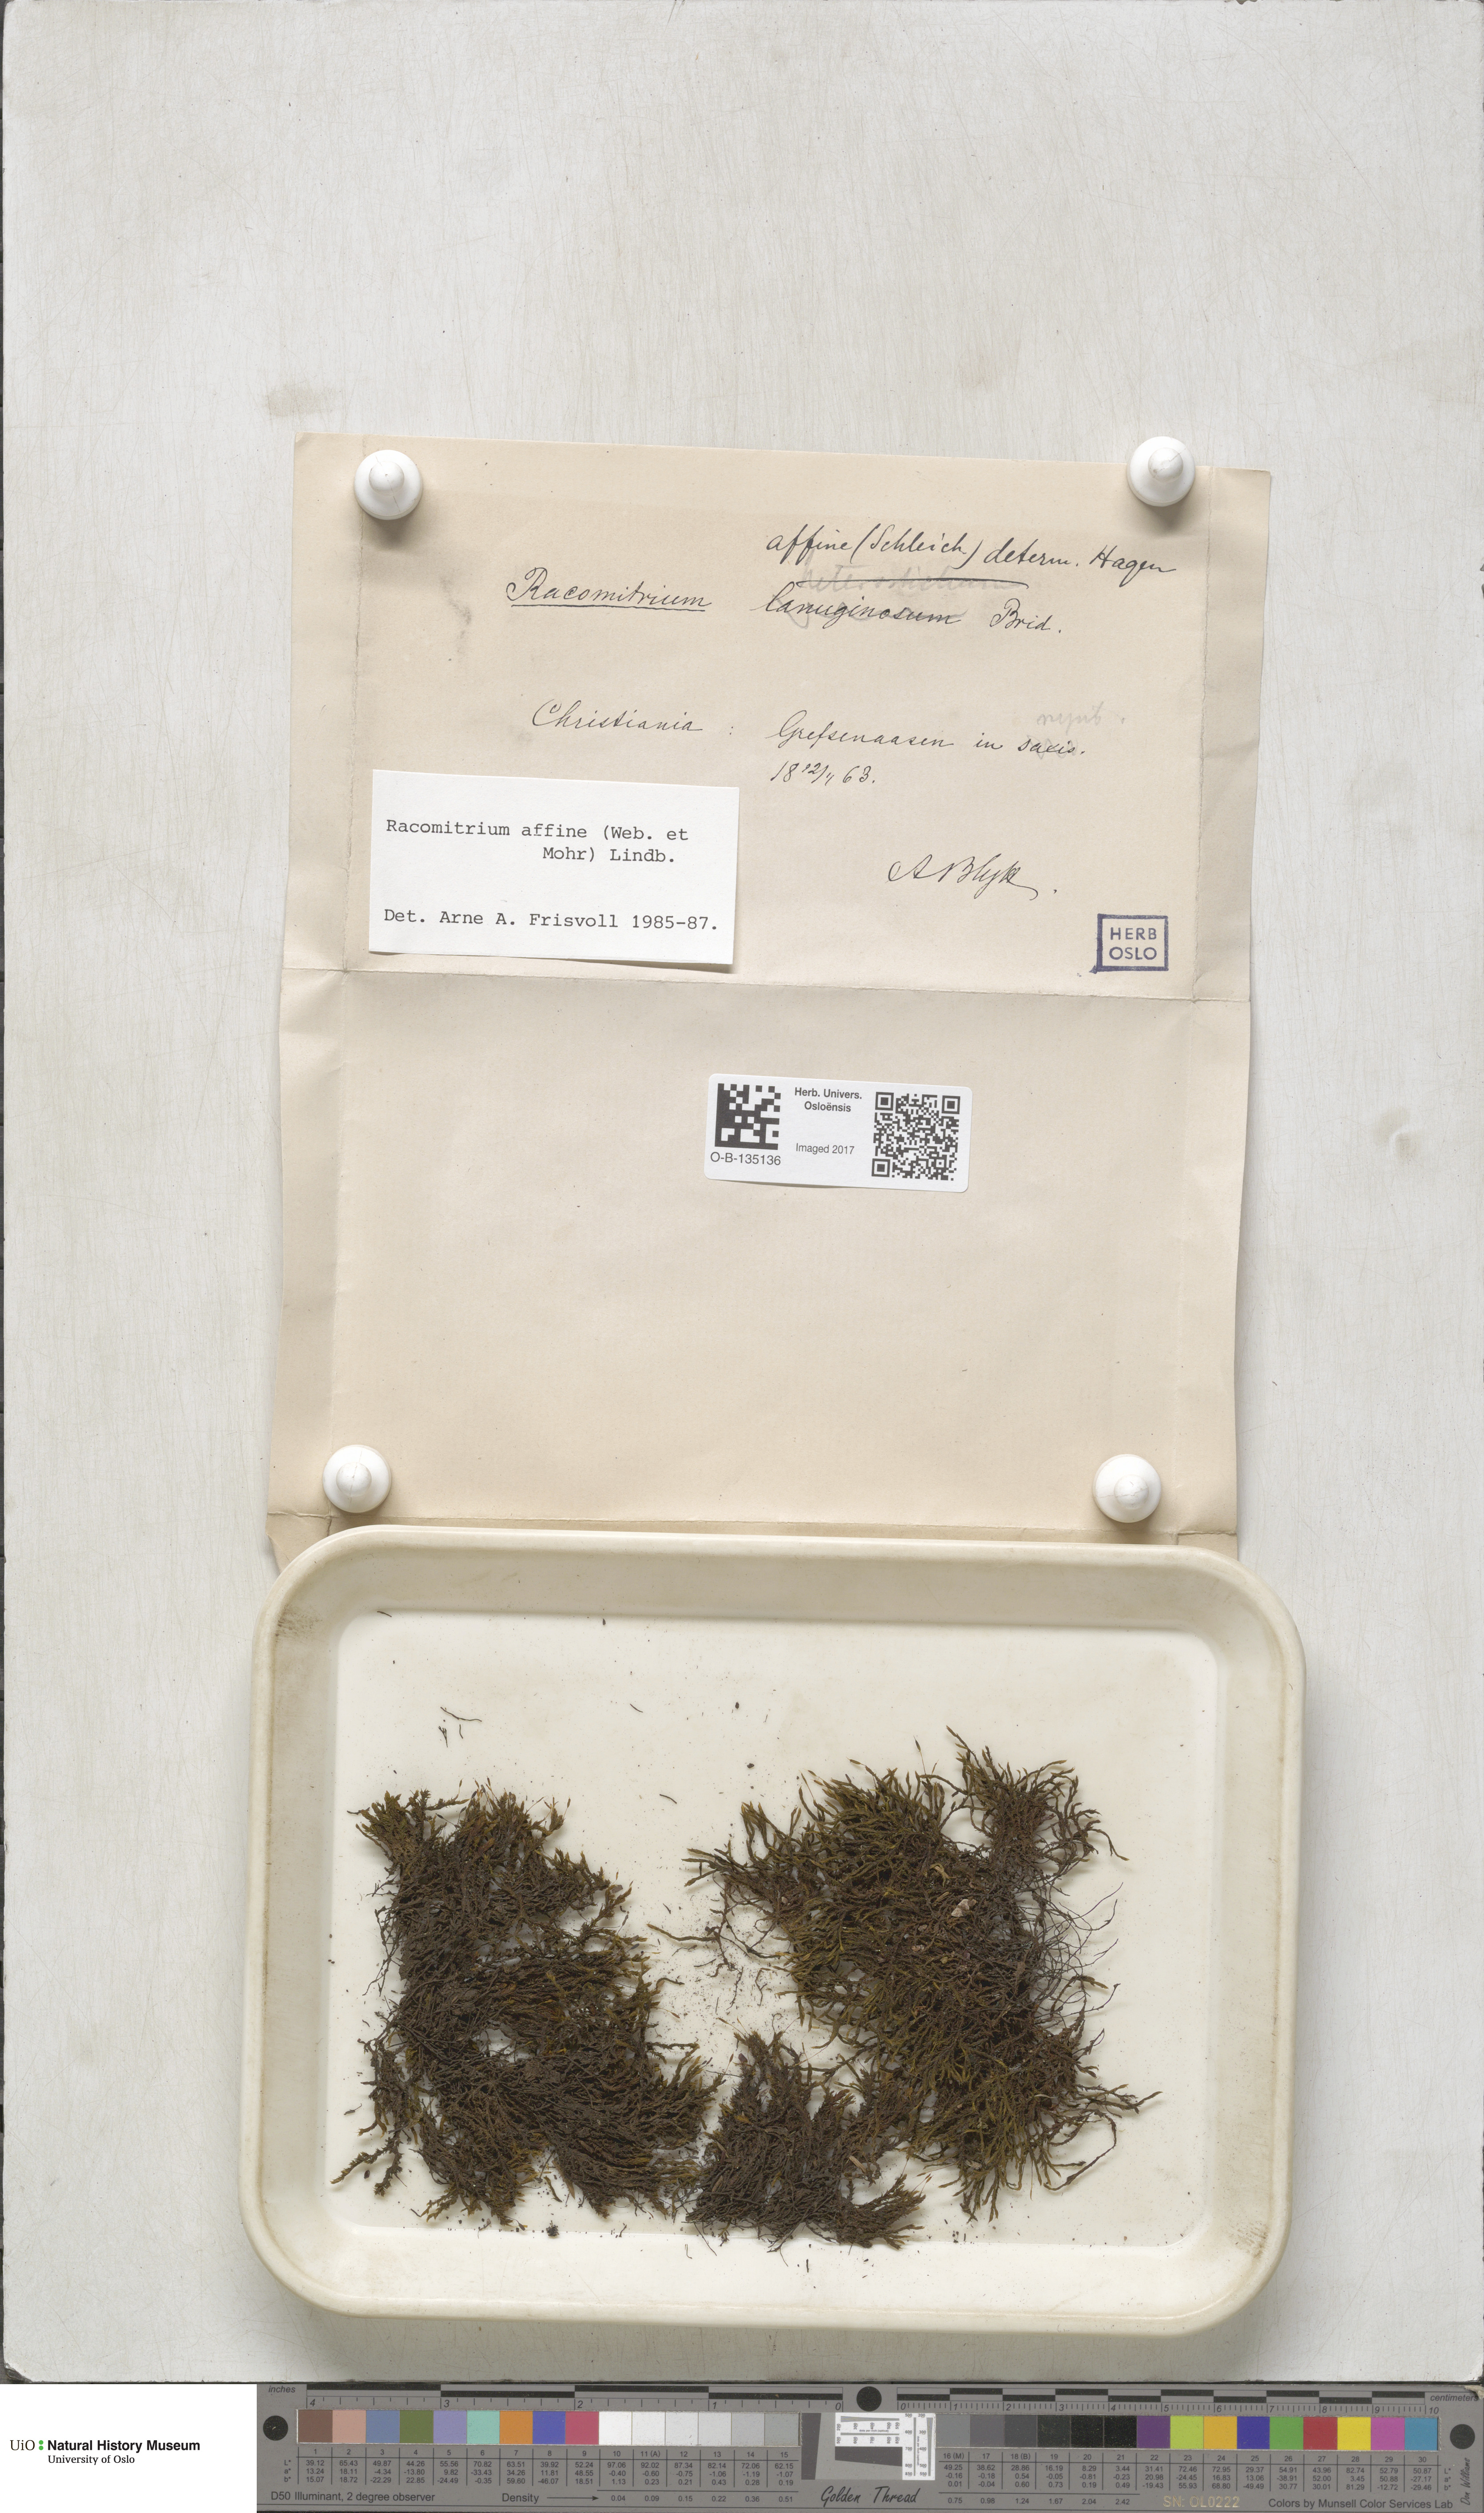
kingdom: Plantae
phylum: Bryophyta
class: Bryopsida
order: Grimmiales
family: Grimmiaceae
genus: Bucklandiella
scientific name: Bucklandiella affinis
